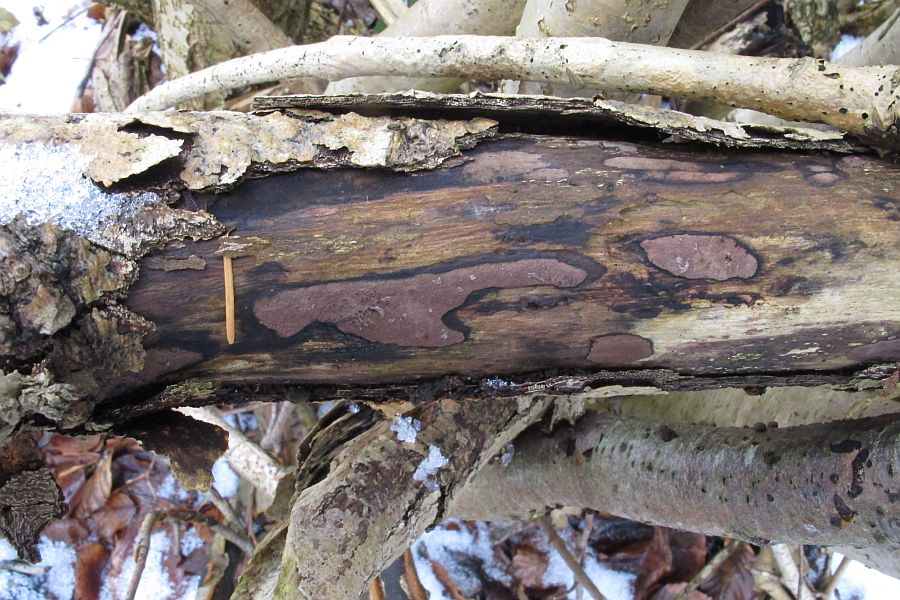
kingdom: Fungi
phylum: Ascomycota
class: Sordariomycetes
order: Xylariales
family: Hypoxylaceae
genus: Hypoxylon
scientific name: Hypoxylon petriniae
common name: nedsænket kulbær
